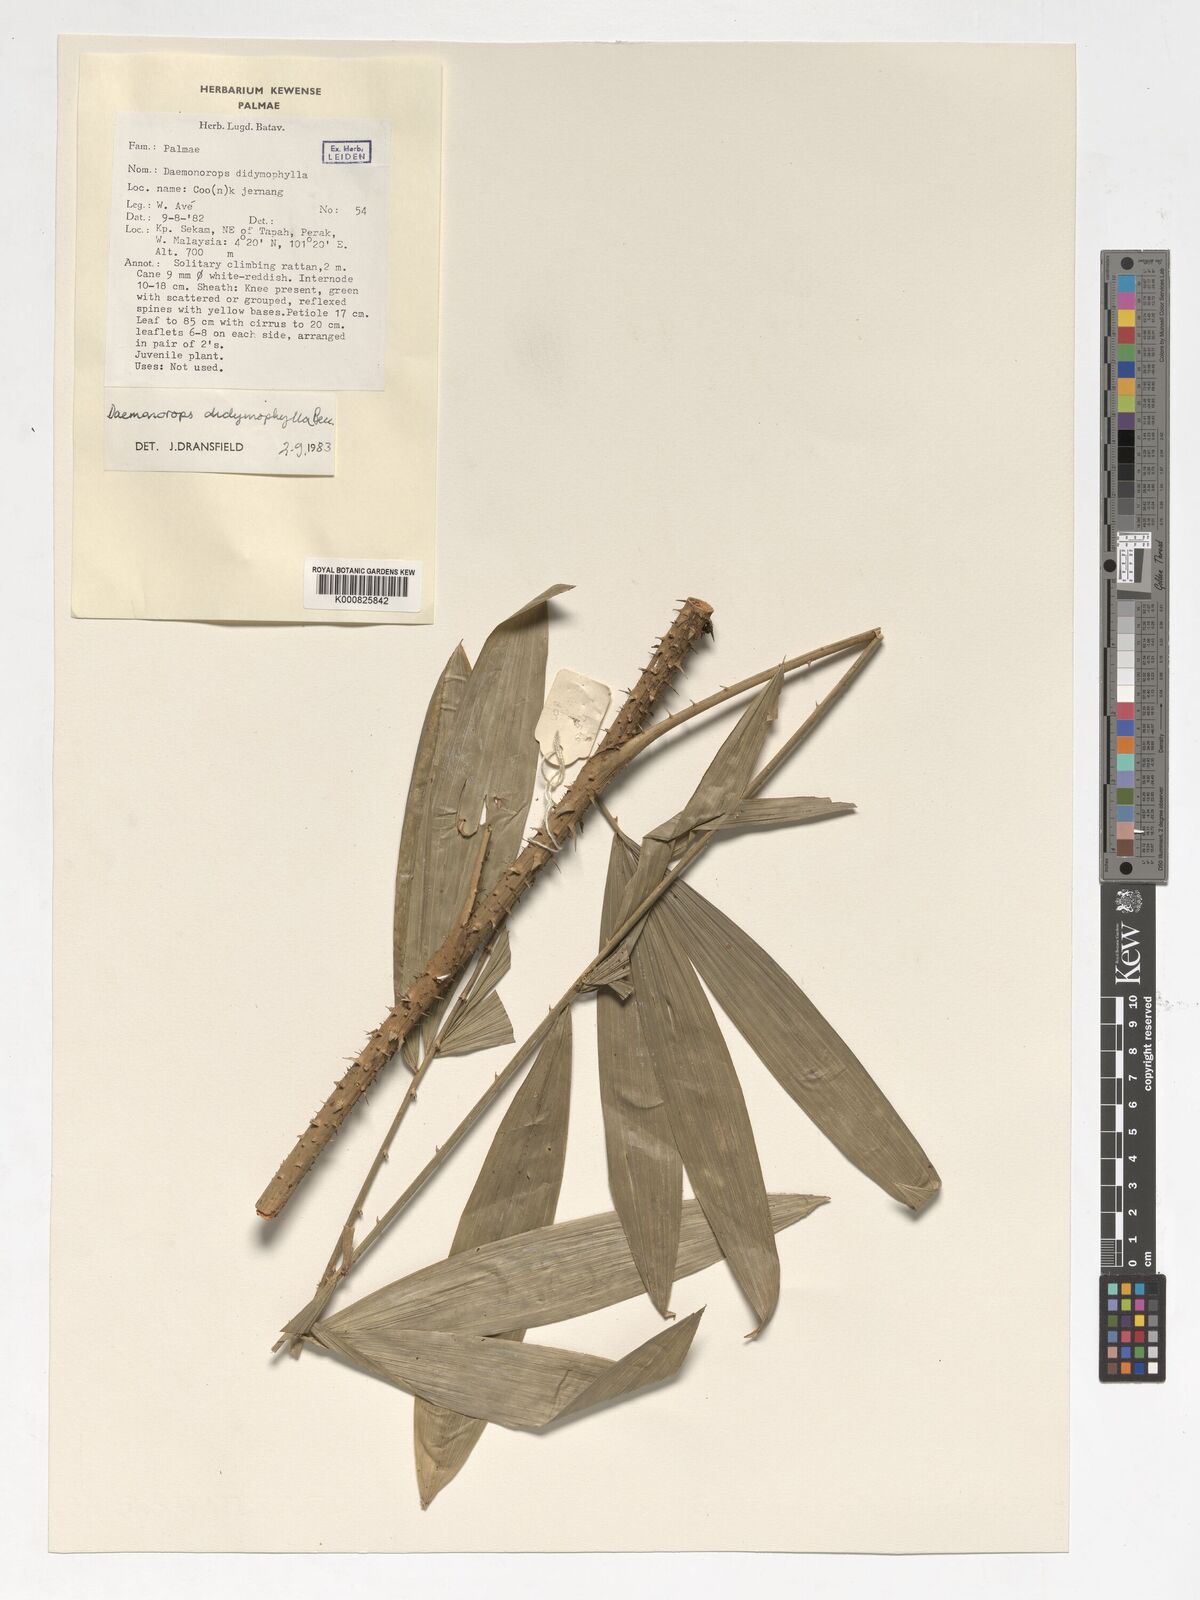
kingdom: Plantae
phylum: Tracheophyta
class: Liliopsida
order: Arecales
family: Arecaceae
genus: Calamus
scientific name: Calamus gracilipes
